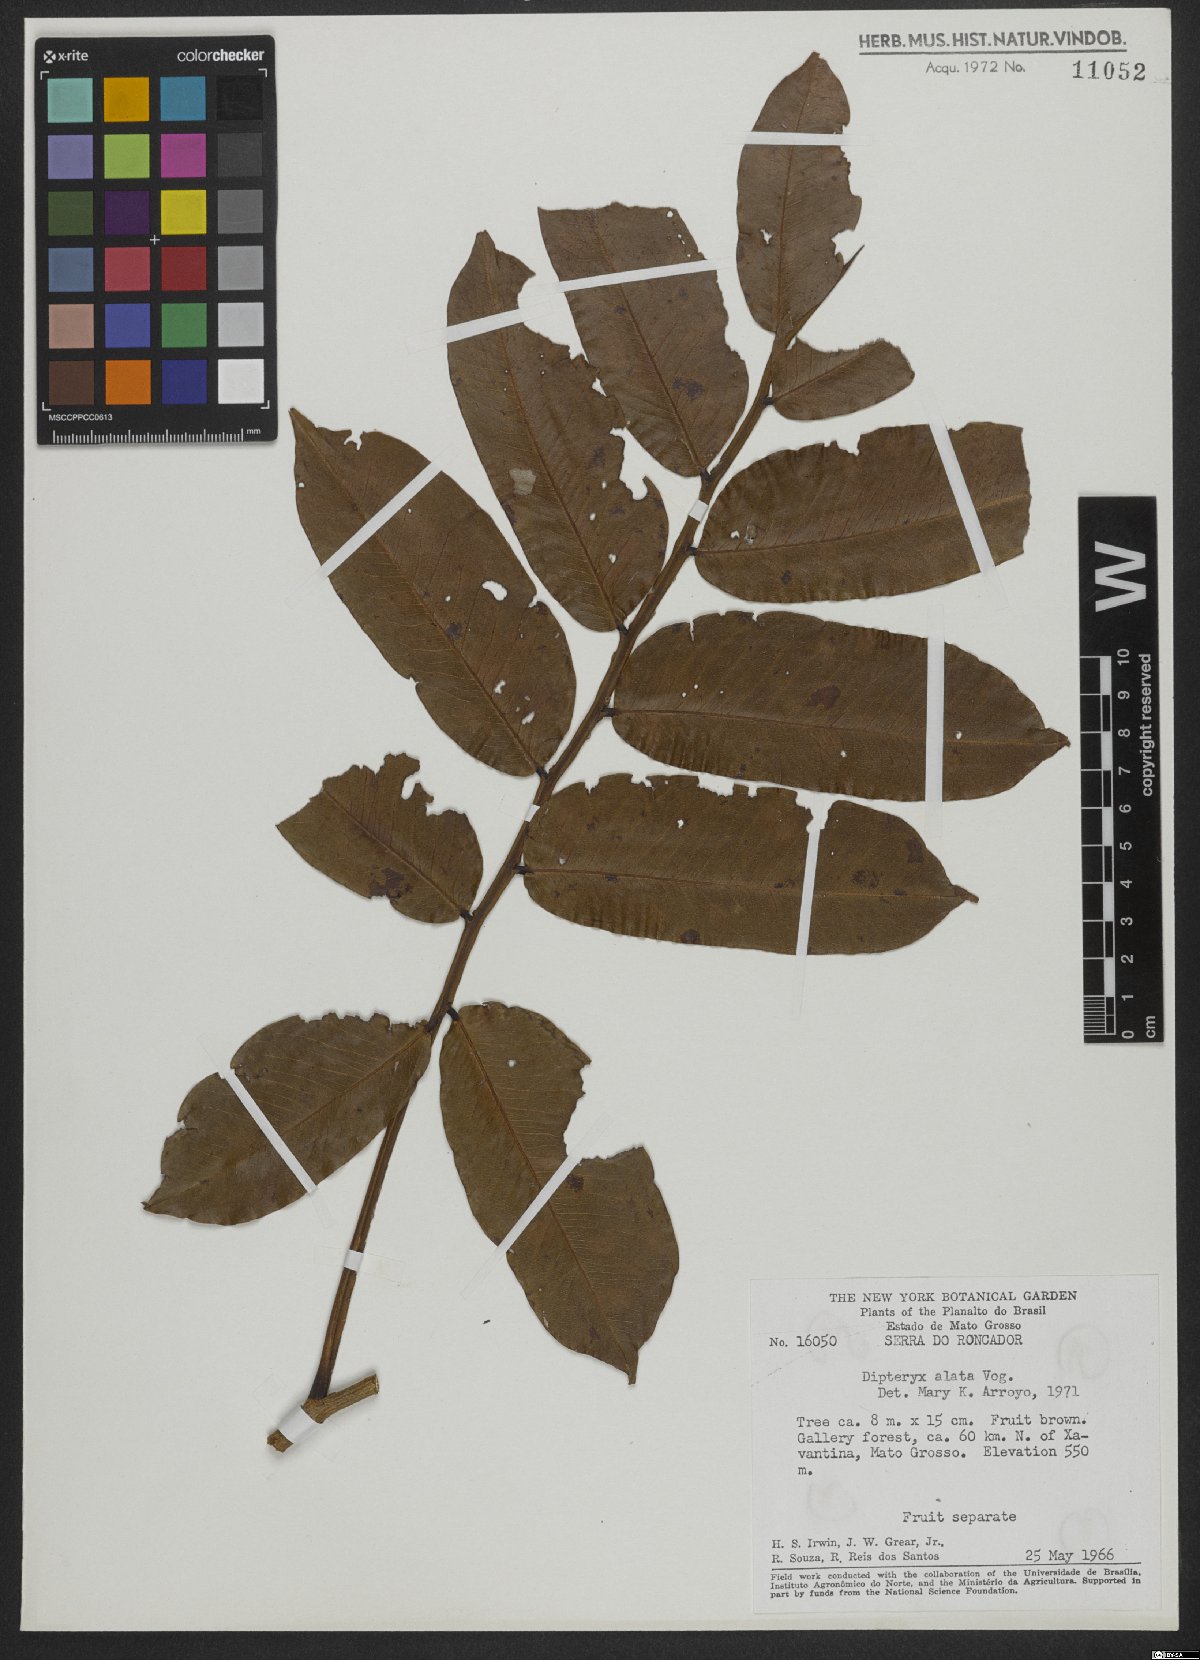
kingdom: Plantae
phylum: Tracheophyta
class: Magnoliopsida
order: Fabales
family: Fabaceae
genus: Dipteryx
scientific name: Dipteryx alata
